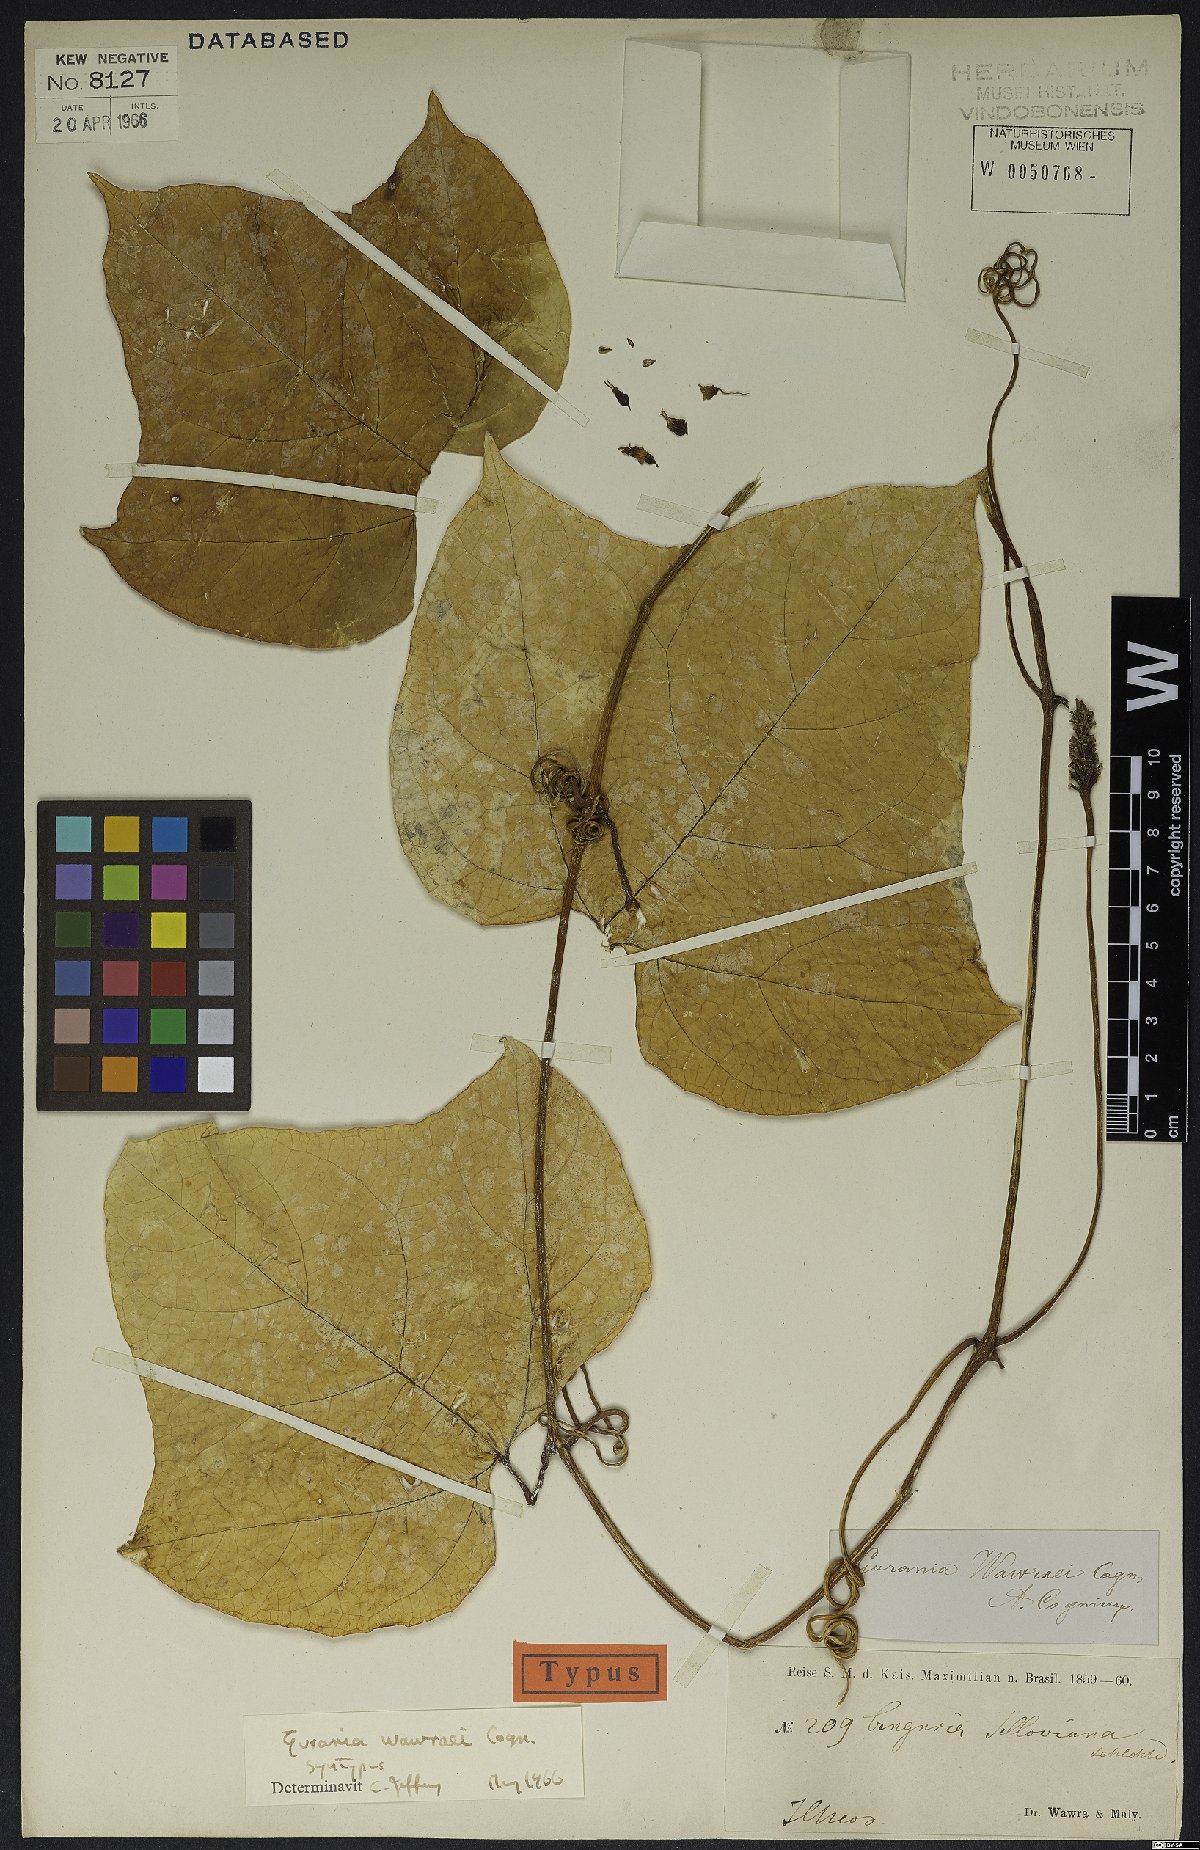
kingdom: Plantae
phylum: Tracheophyta
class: Magnoliopsida
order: Cucurbitales
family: Cucurbitaceae
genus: Gurania
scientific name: Gurania wawrae
